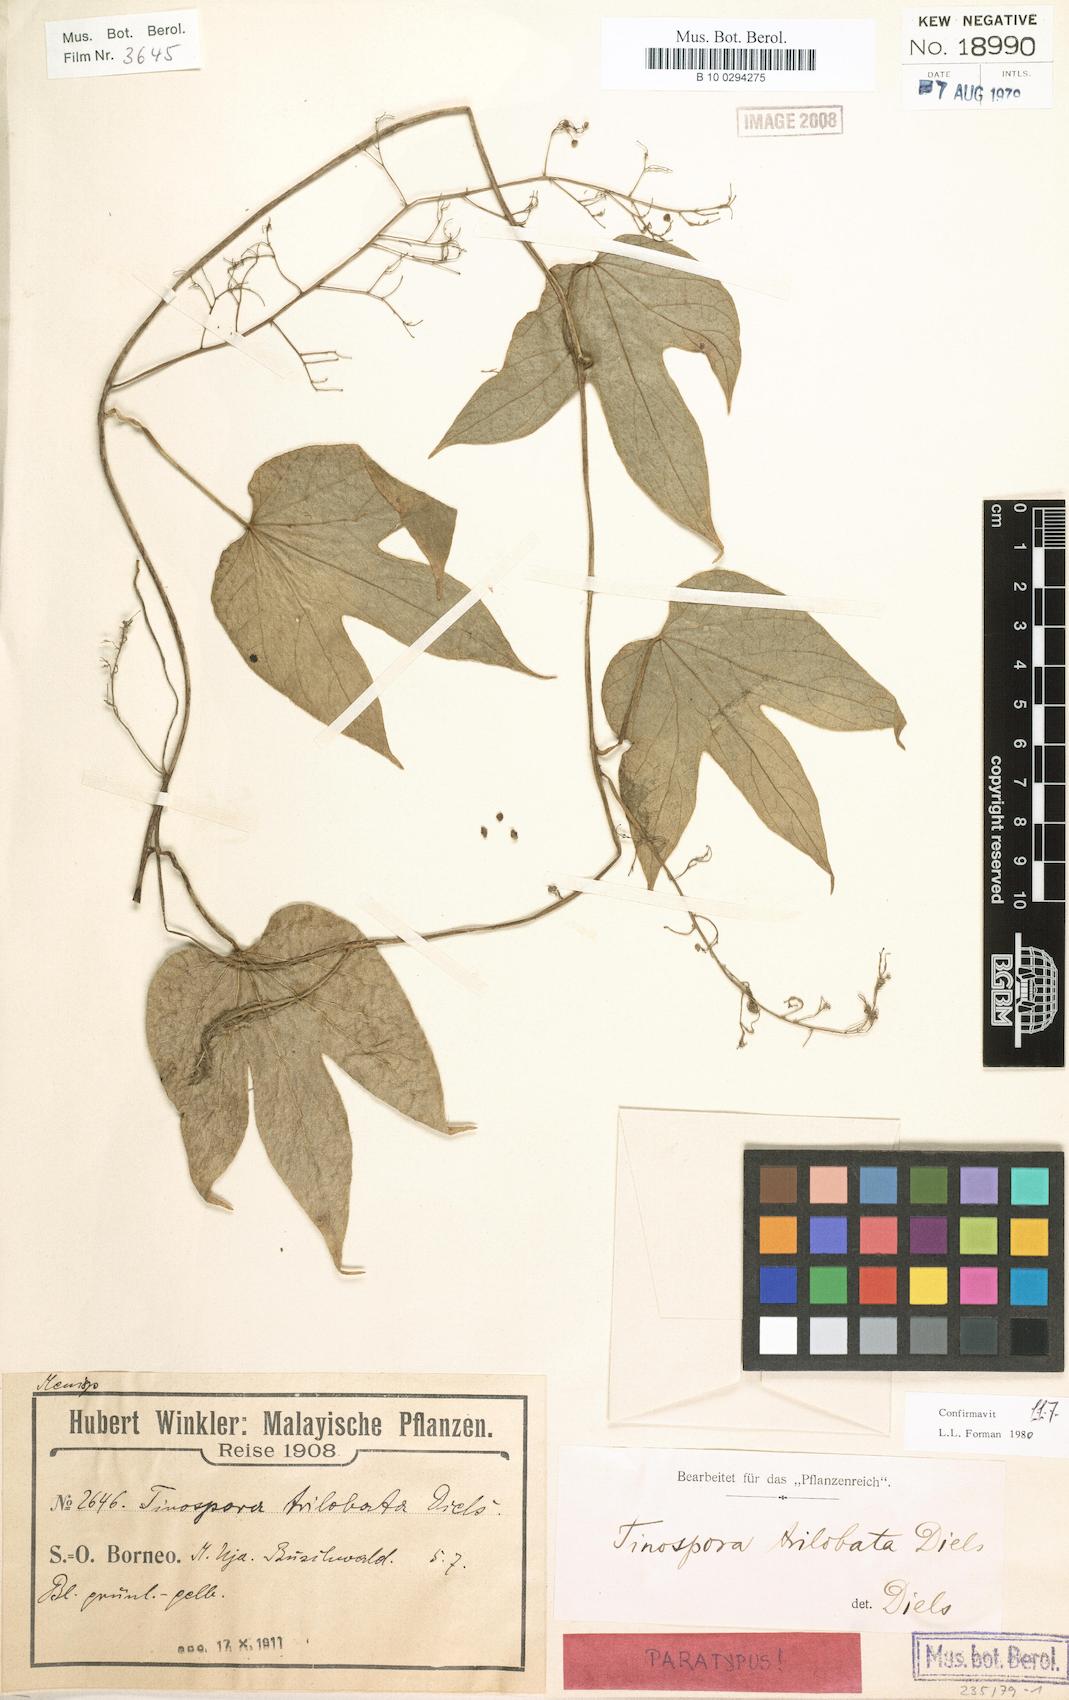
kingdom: Plantae
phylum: Tracheophyta
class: Magnoliopsida
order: Ranunculales
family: Menispermaceae
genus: Tinospora
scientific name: Tinospora trilobata
